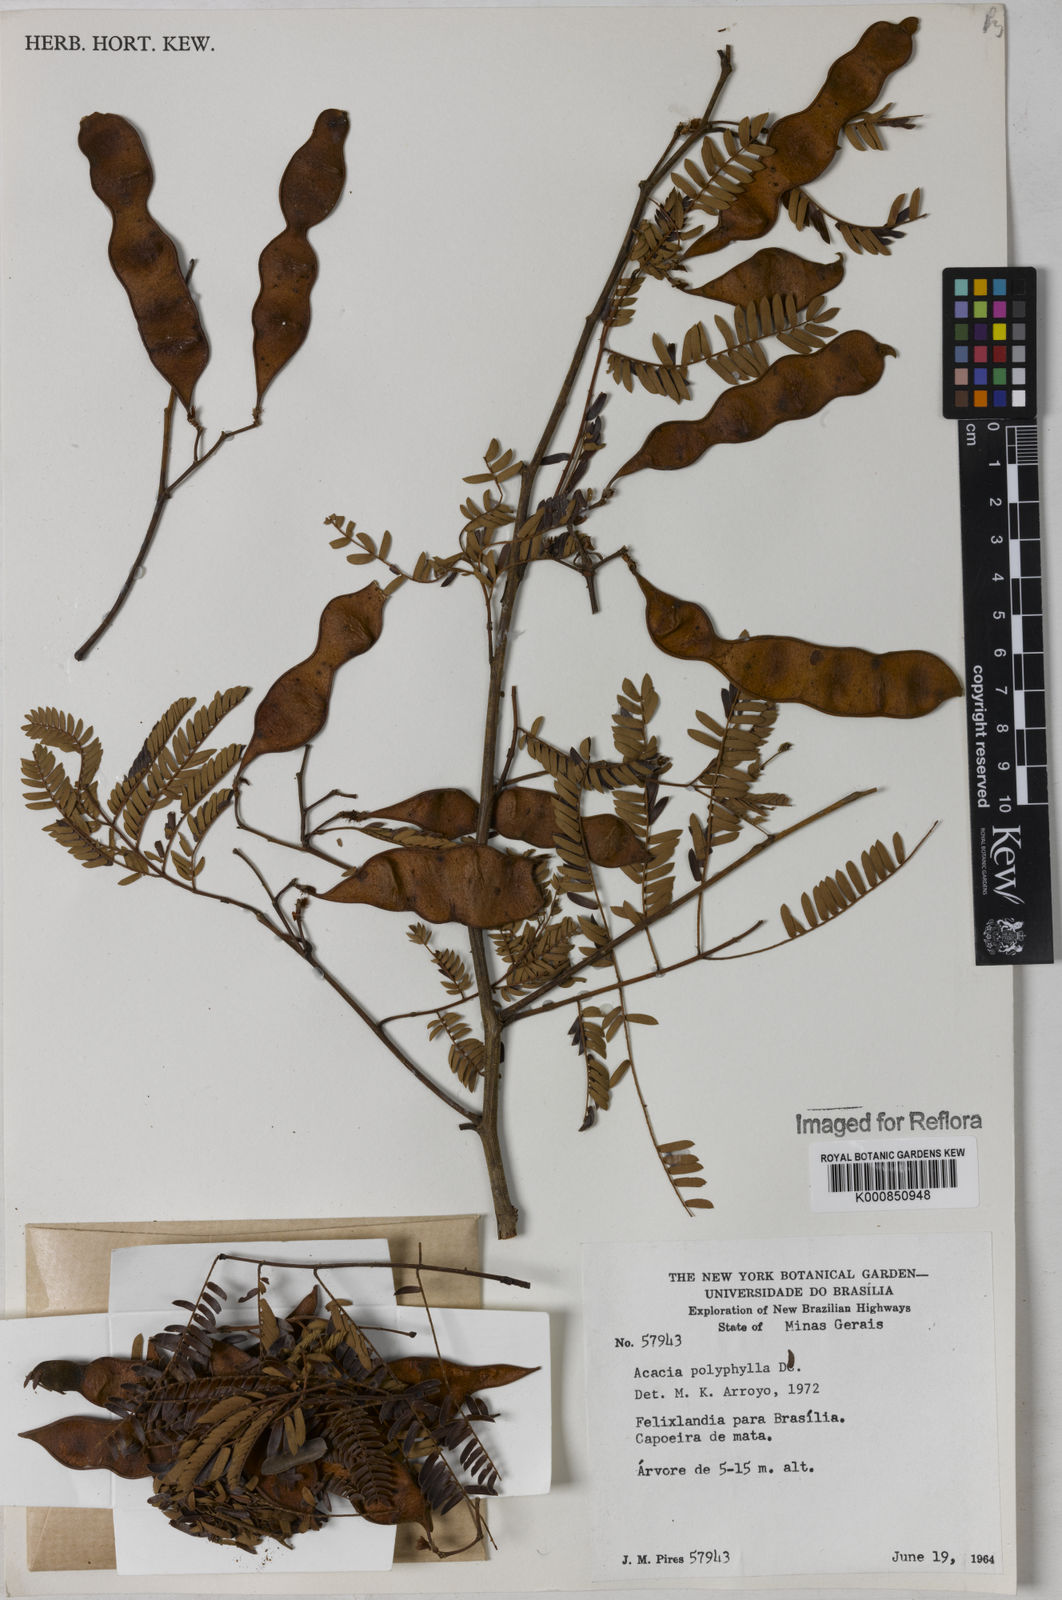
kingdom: Plantae
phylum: Tracheophyta
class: Magnoliopsida
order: Fabales
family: Fabaceae
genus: Senegalia
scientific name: Senegalia polyphylla
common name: White-tamarind
